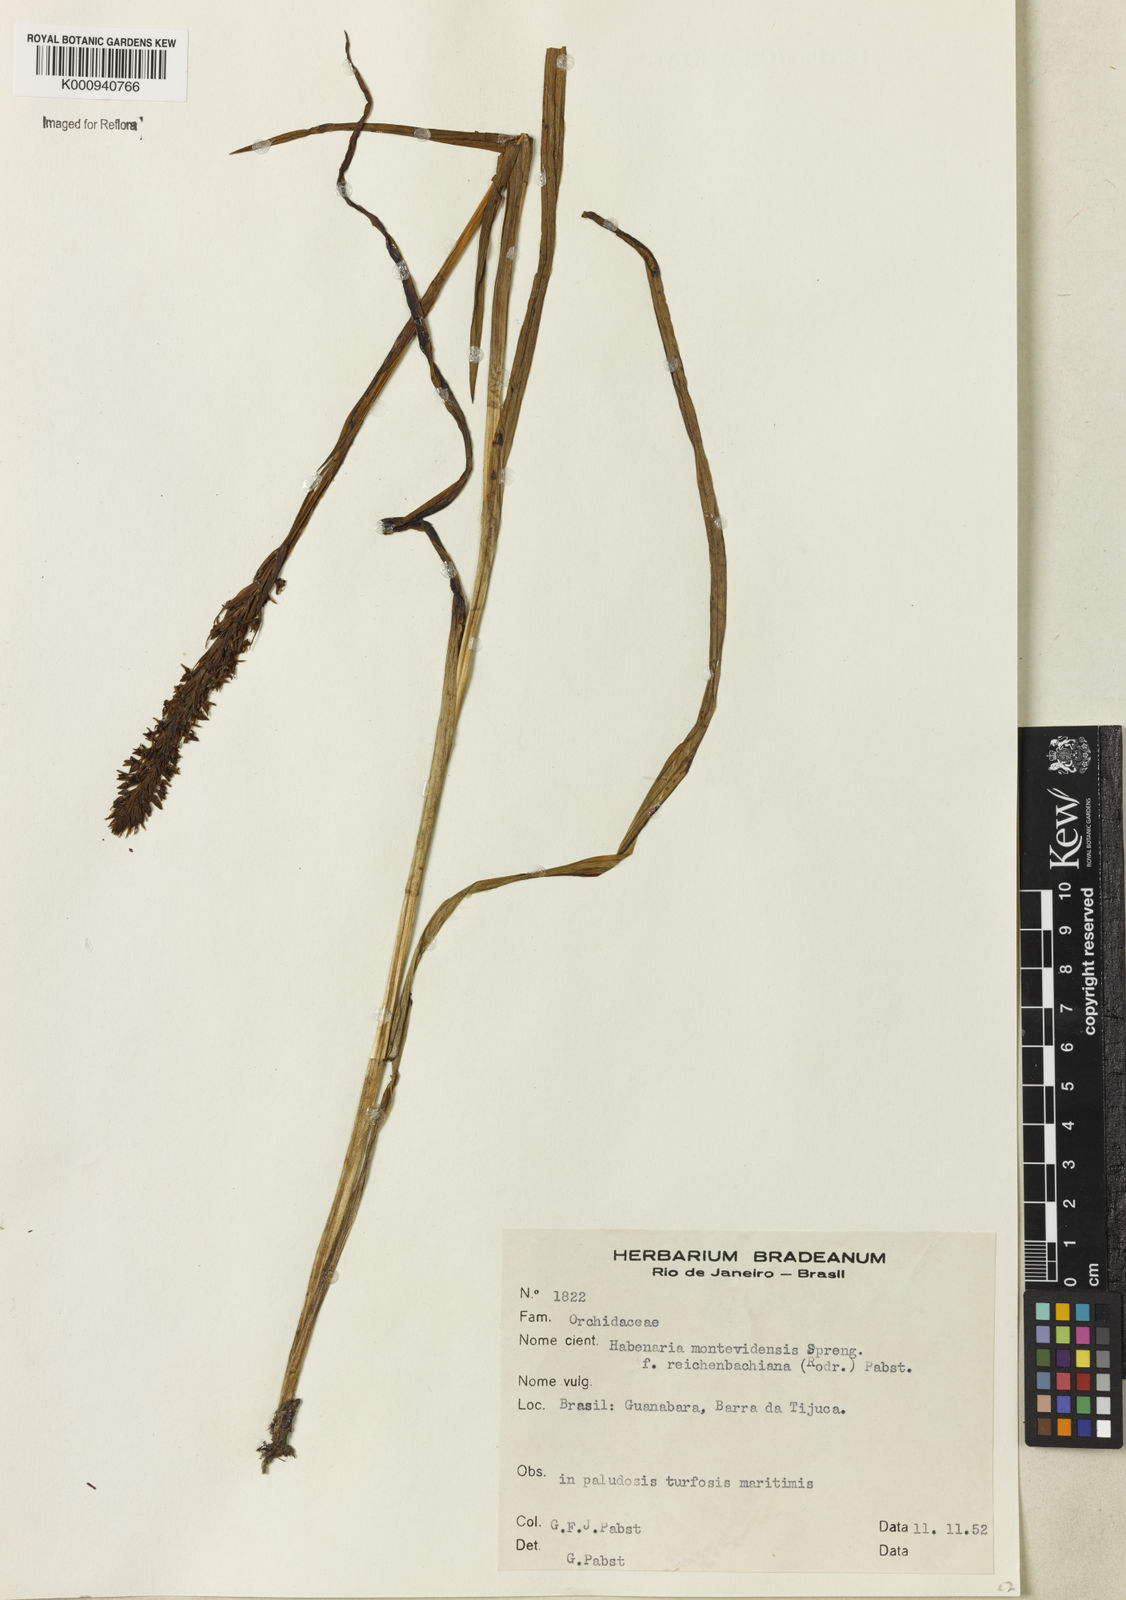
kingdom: Plantae
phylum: Tracheophyta
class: Liliopsida
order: Asparagales
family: Orchidaceae
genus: Habenaria
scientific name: Habenaria parviflora
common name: Small flowered habenaria
